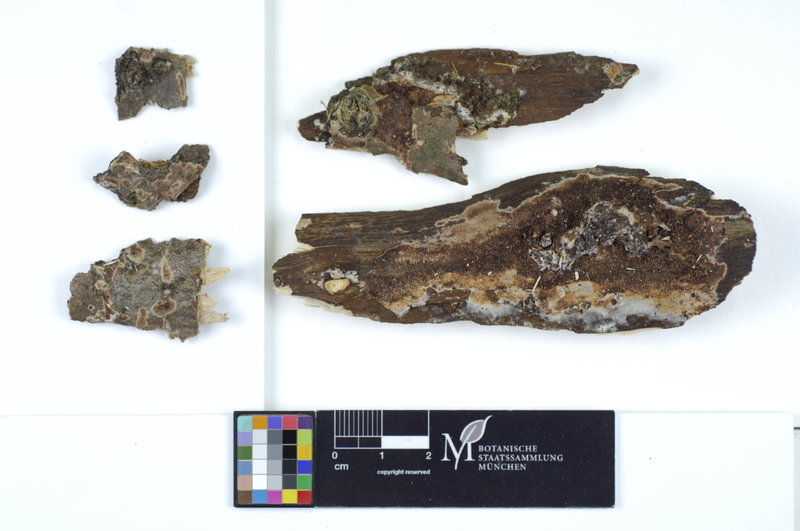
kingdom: Fungi
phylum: Basidiomycota
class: Agaricomycetes
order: Polyporales
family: Irpicaceae
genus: Ceriporia
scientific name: Ceriporia purpurea
